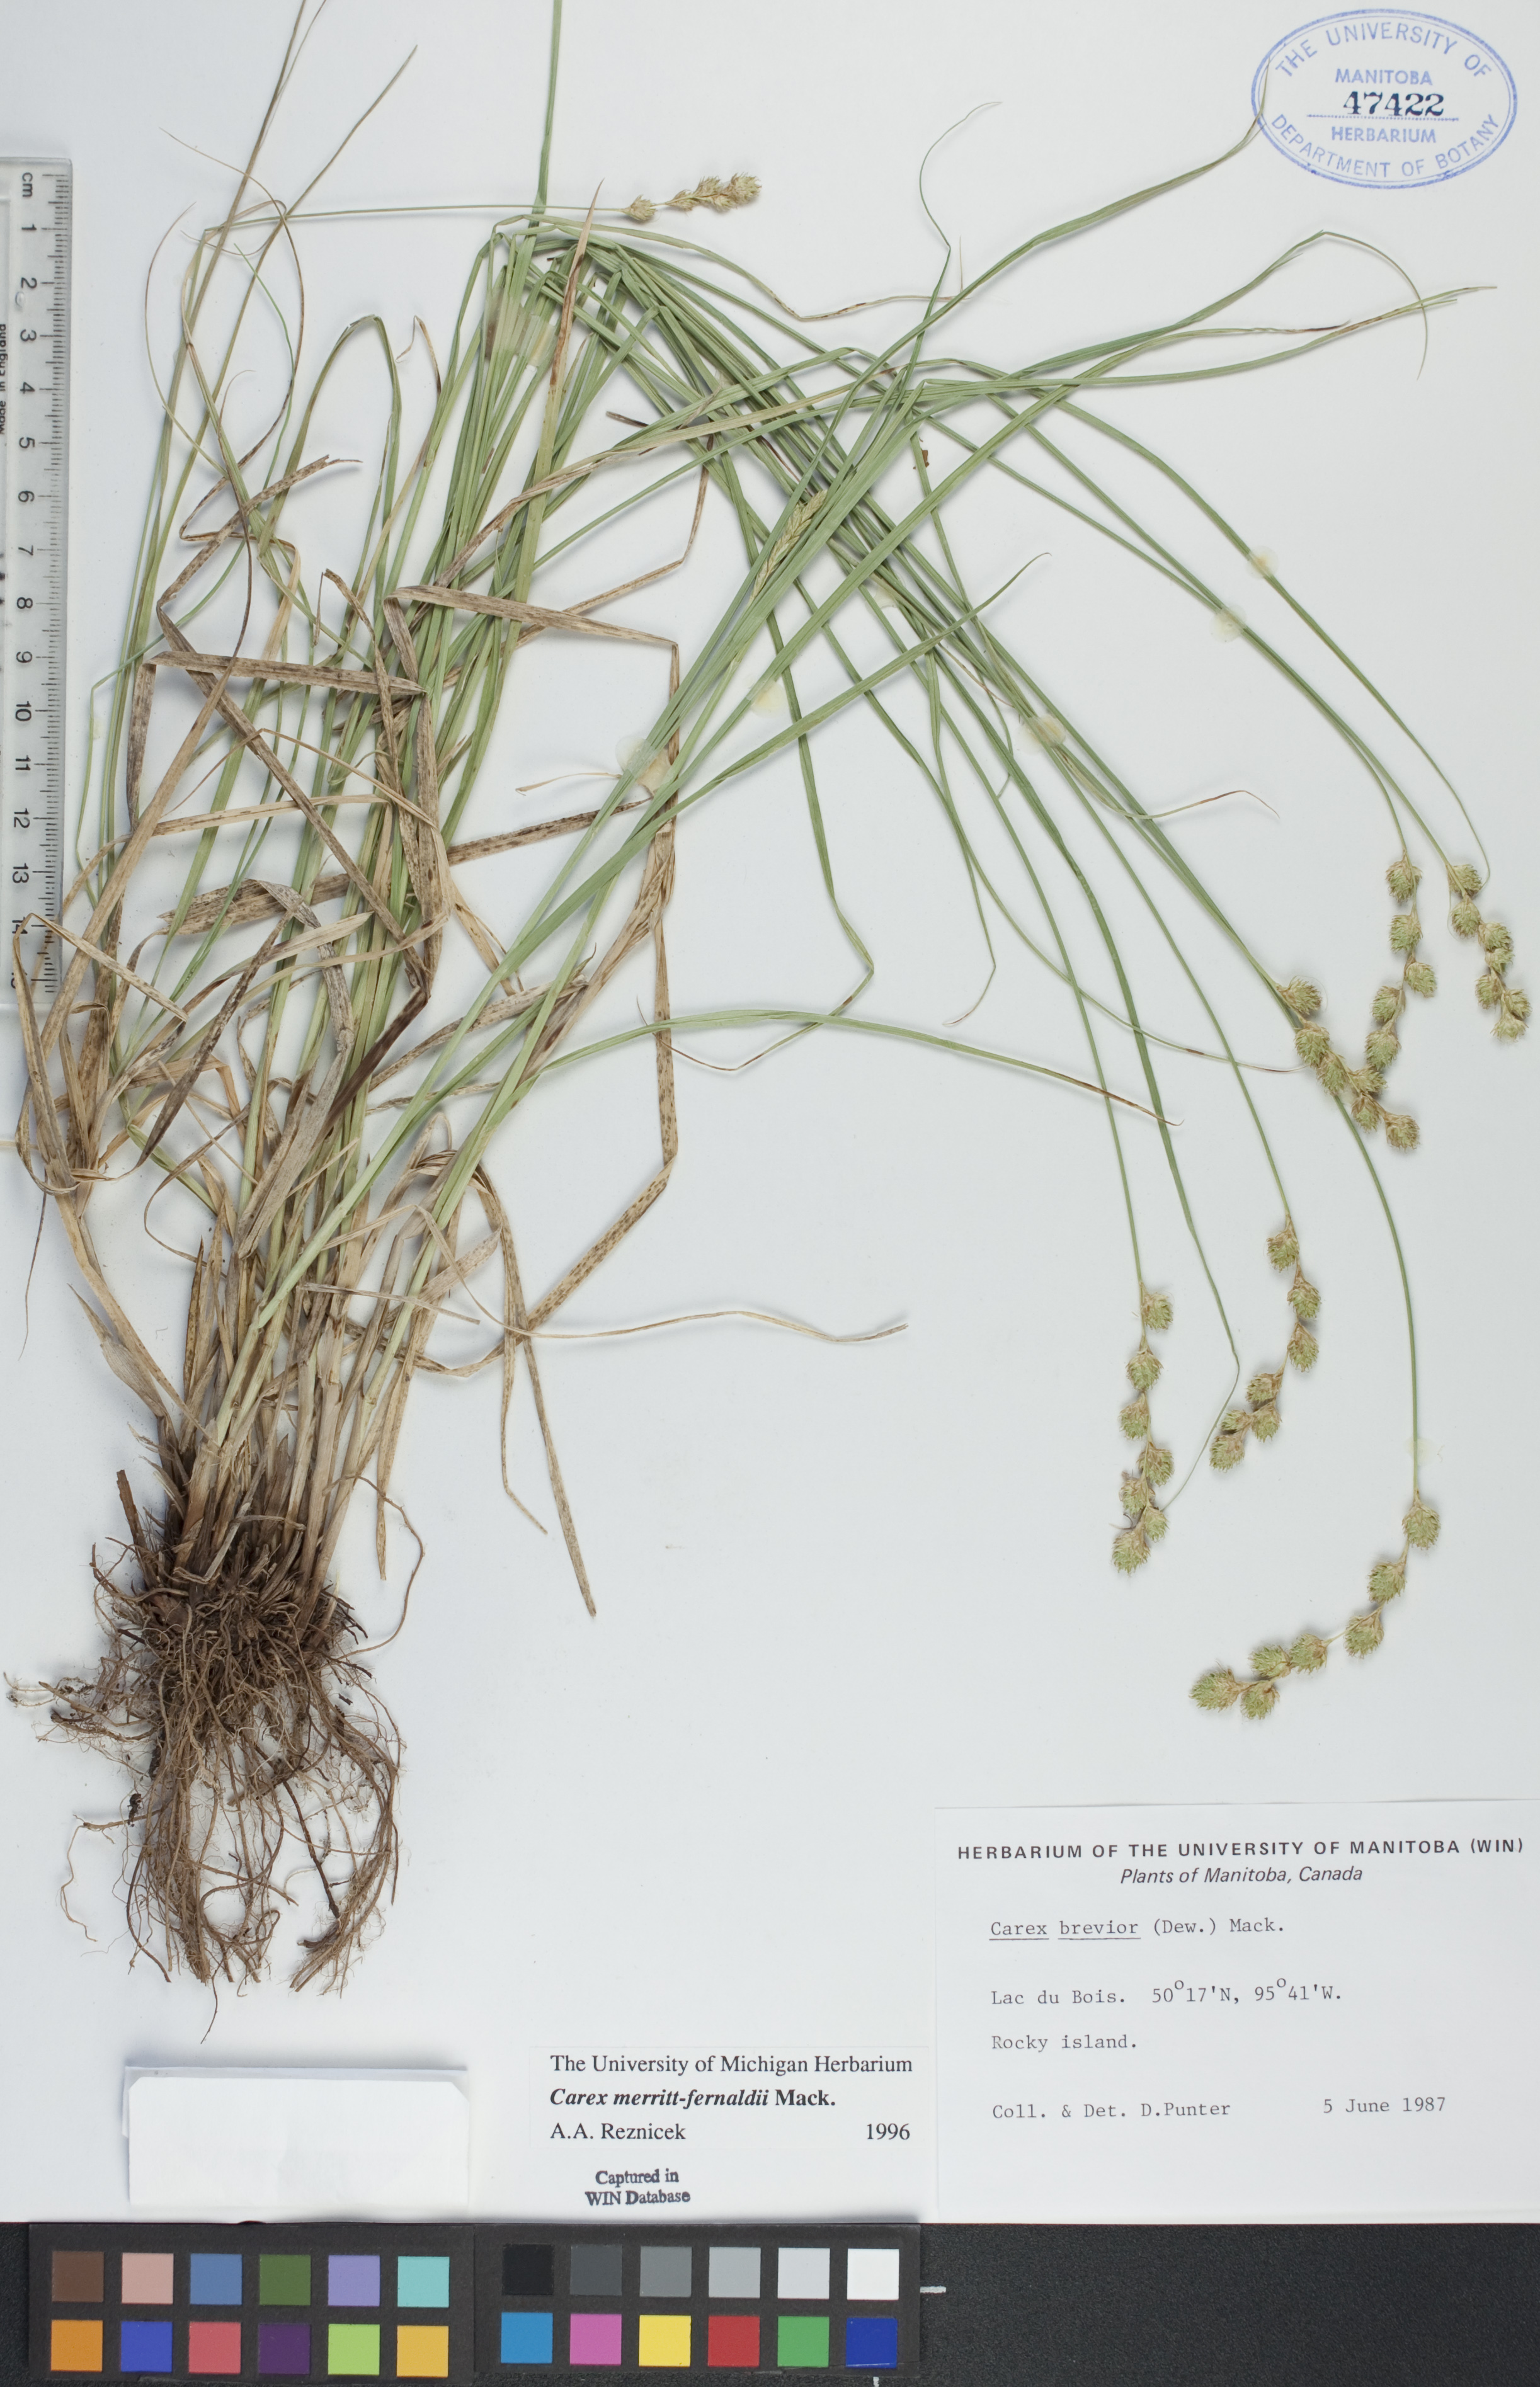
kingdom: Plantae
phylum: Tracheophyta
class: Liliopsida
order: Poales
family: Cyperaceae
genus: Carex
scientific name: Carex merritt-fernaldii
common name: Fernald's oval sedge
